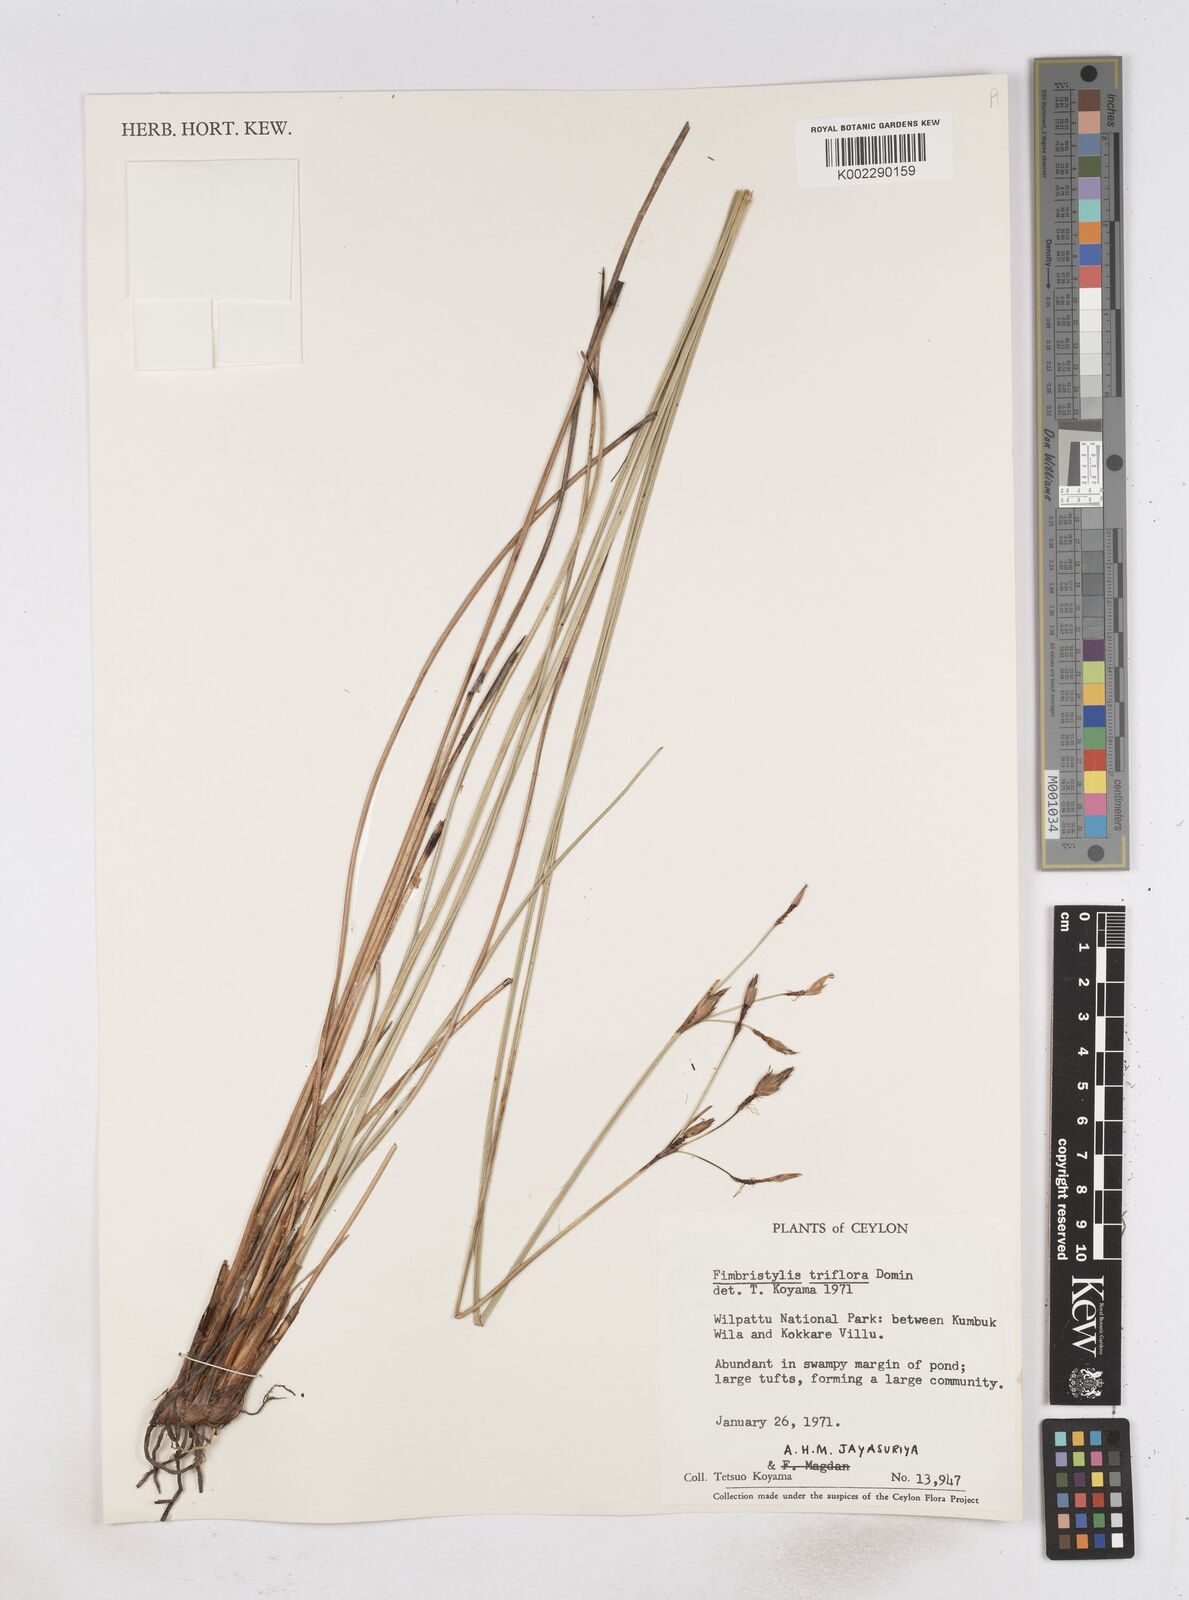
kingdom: Plantae
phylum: Tracheophyta
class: Liliopsida
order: Poales
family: Cyperaceae
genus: Abildgaardia
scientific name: Abildgaardia triflora
